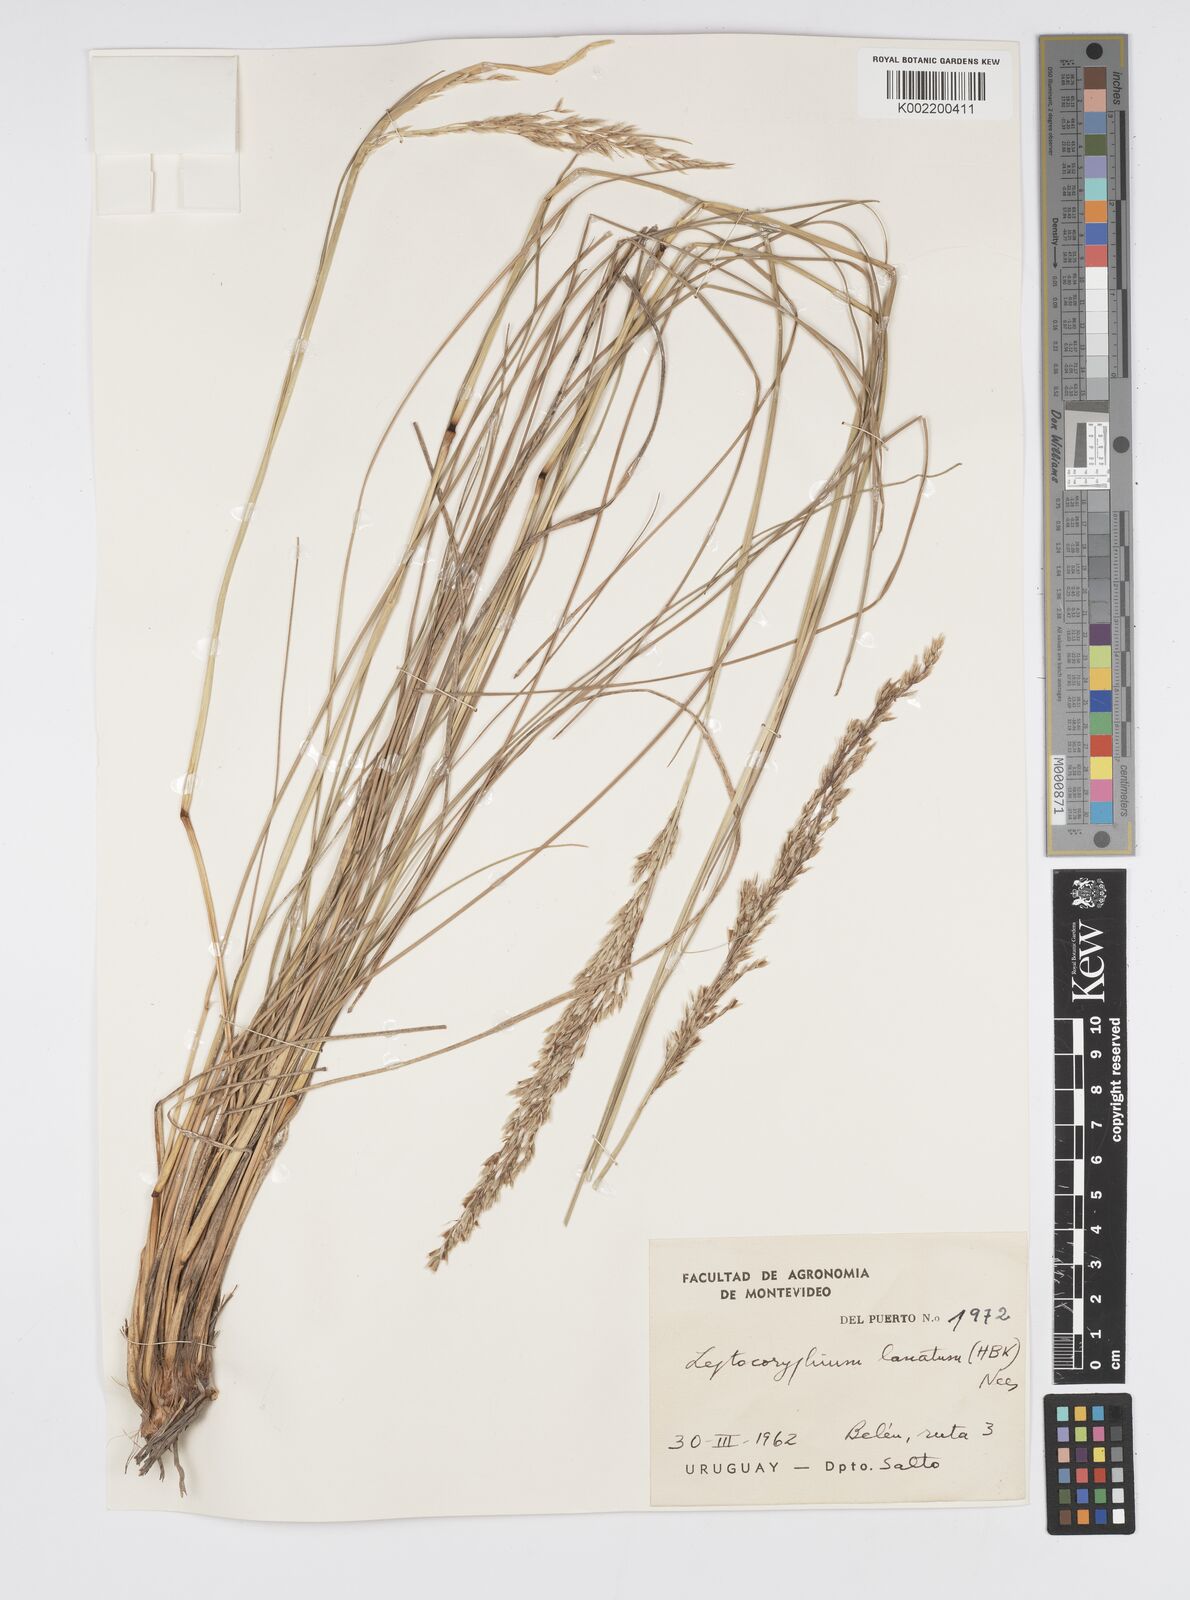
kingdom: Plantae
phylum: Tracheophyta
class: Liliopsida
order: Poales
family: Poaceae
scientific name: Poaceae
